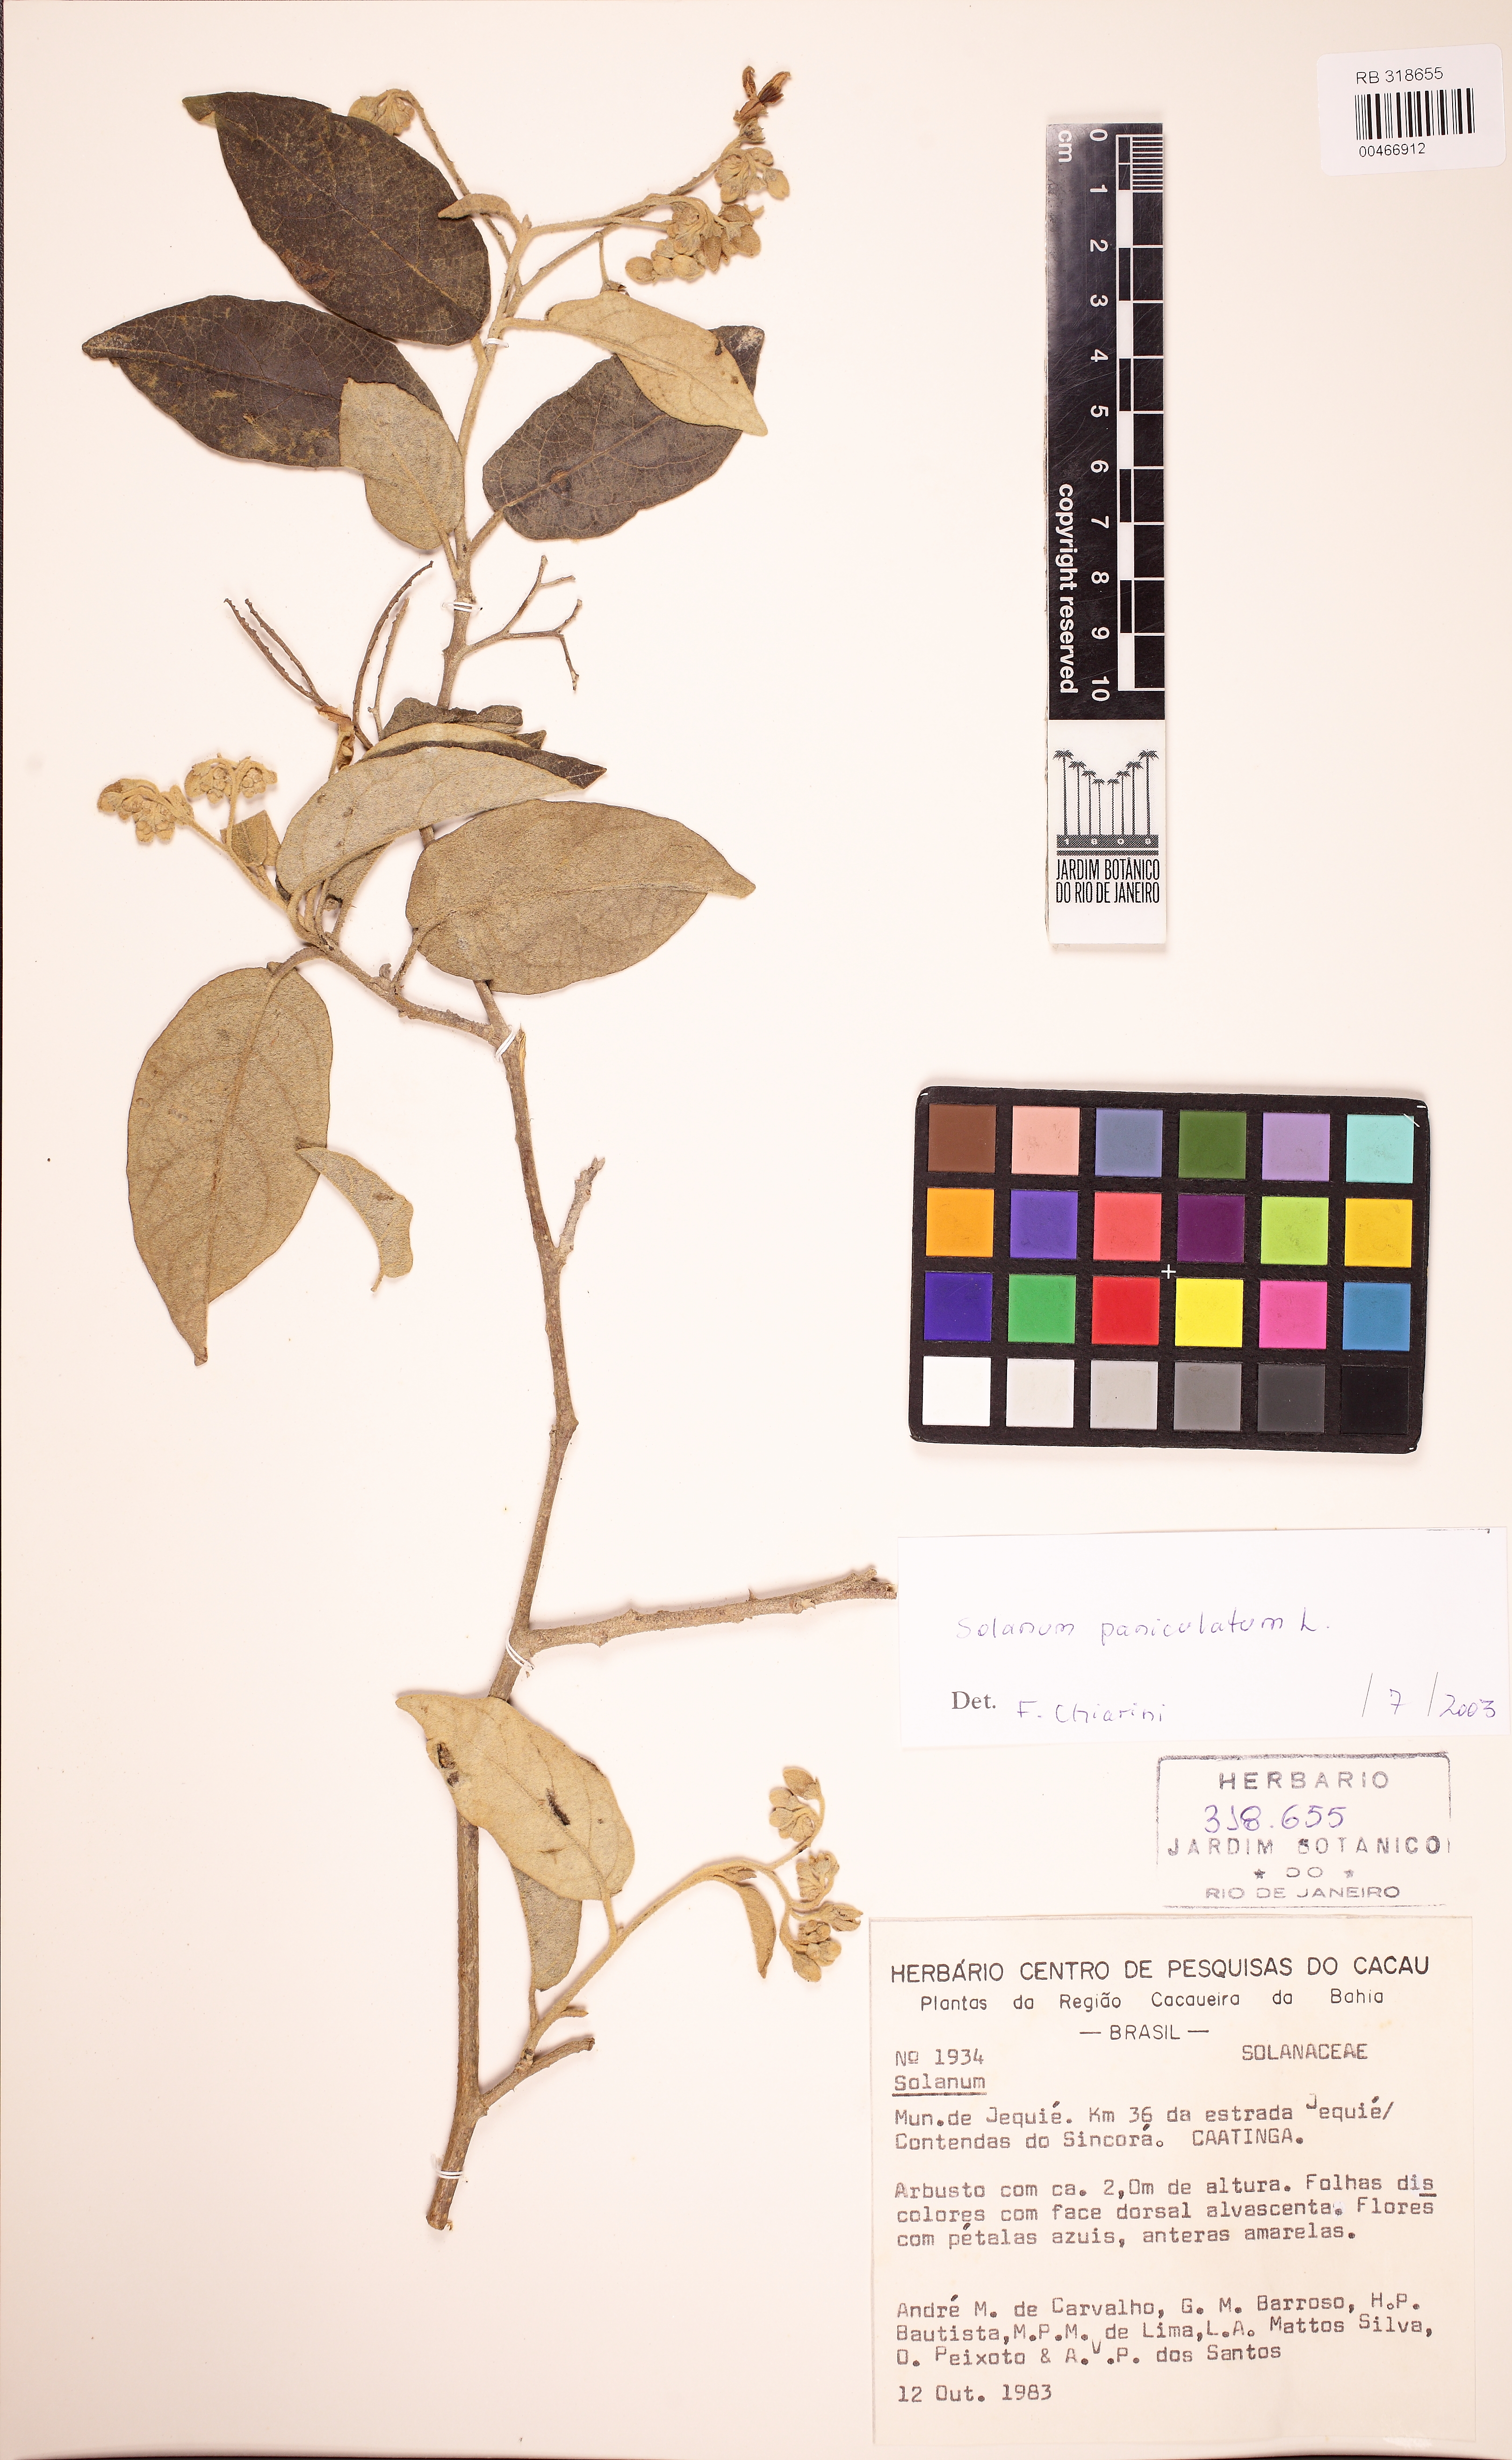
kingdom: Plantae
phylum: Tracheophyta
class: Magnoliopsida
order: Solanales
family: Solanaceae
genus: Solanum
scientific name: Solanum paniculatum
